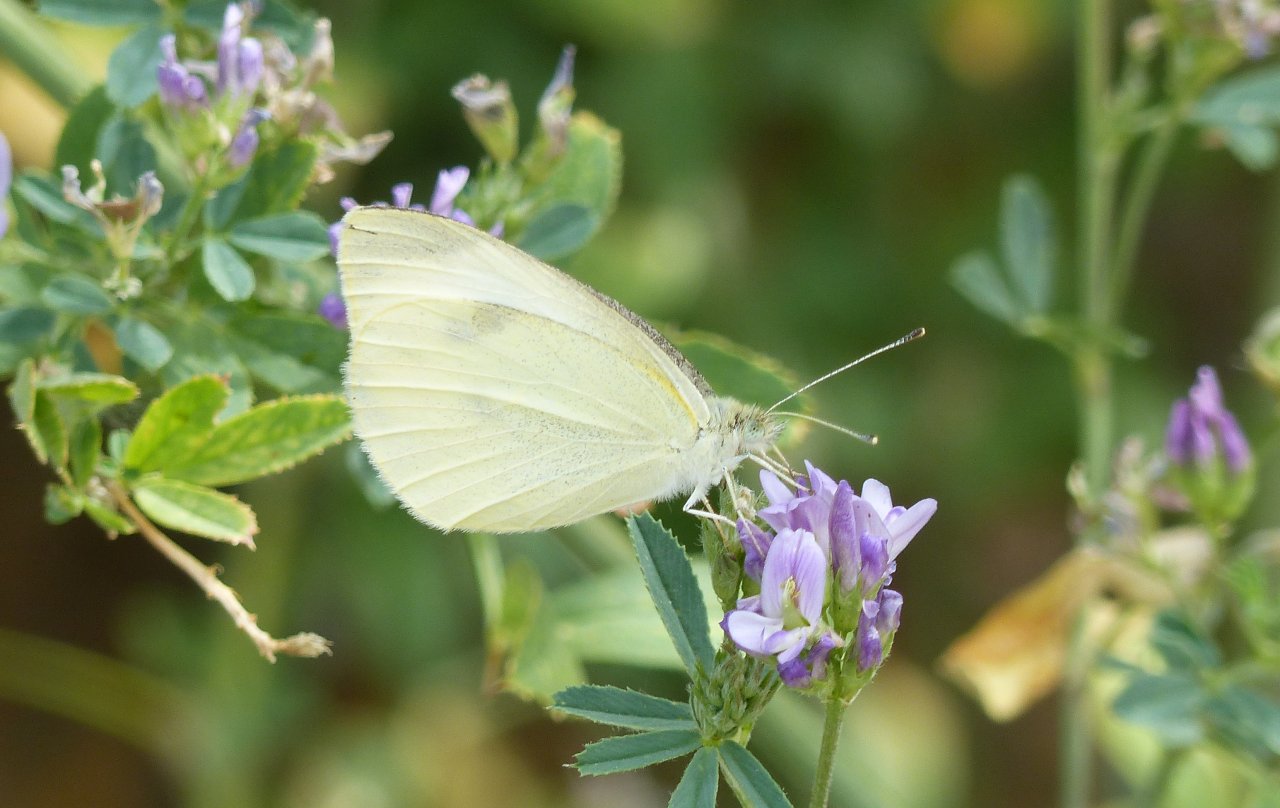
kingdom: Animalia
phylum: Arthropoda
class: Insecta
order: Lepidoptera
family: Pieridae
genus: Pieris
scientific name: Pieris rapae
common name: Cabbage White
